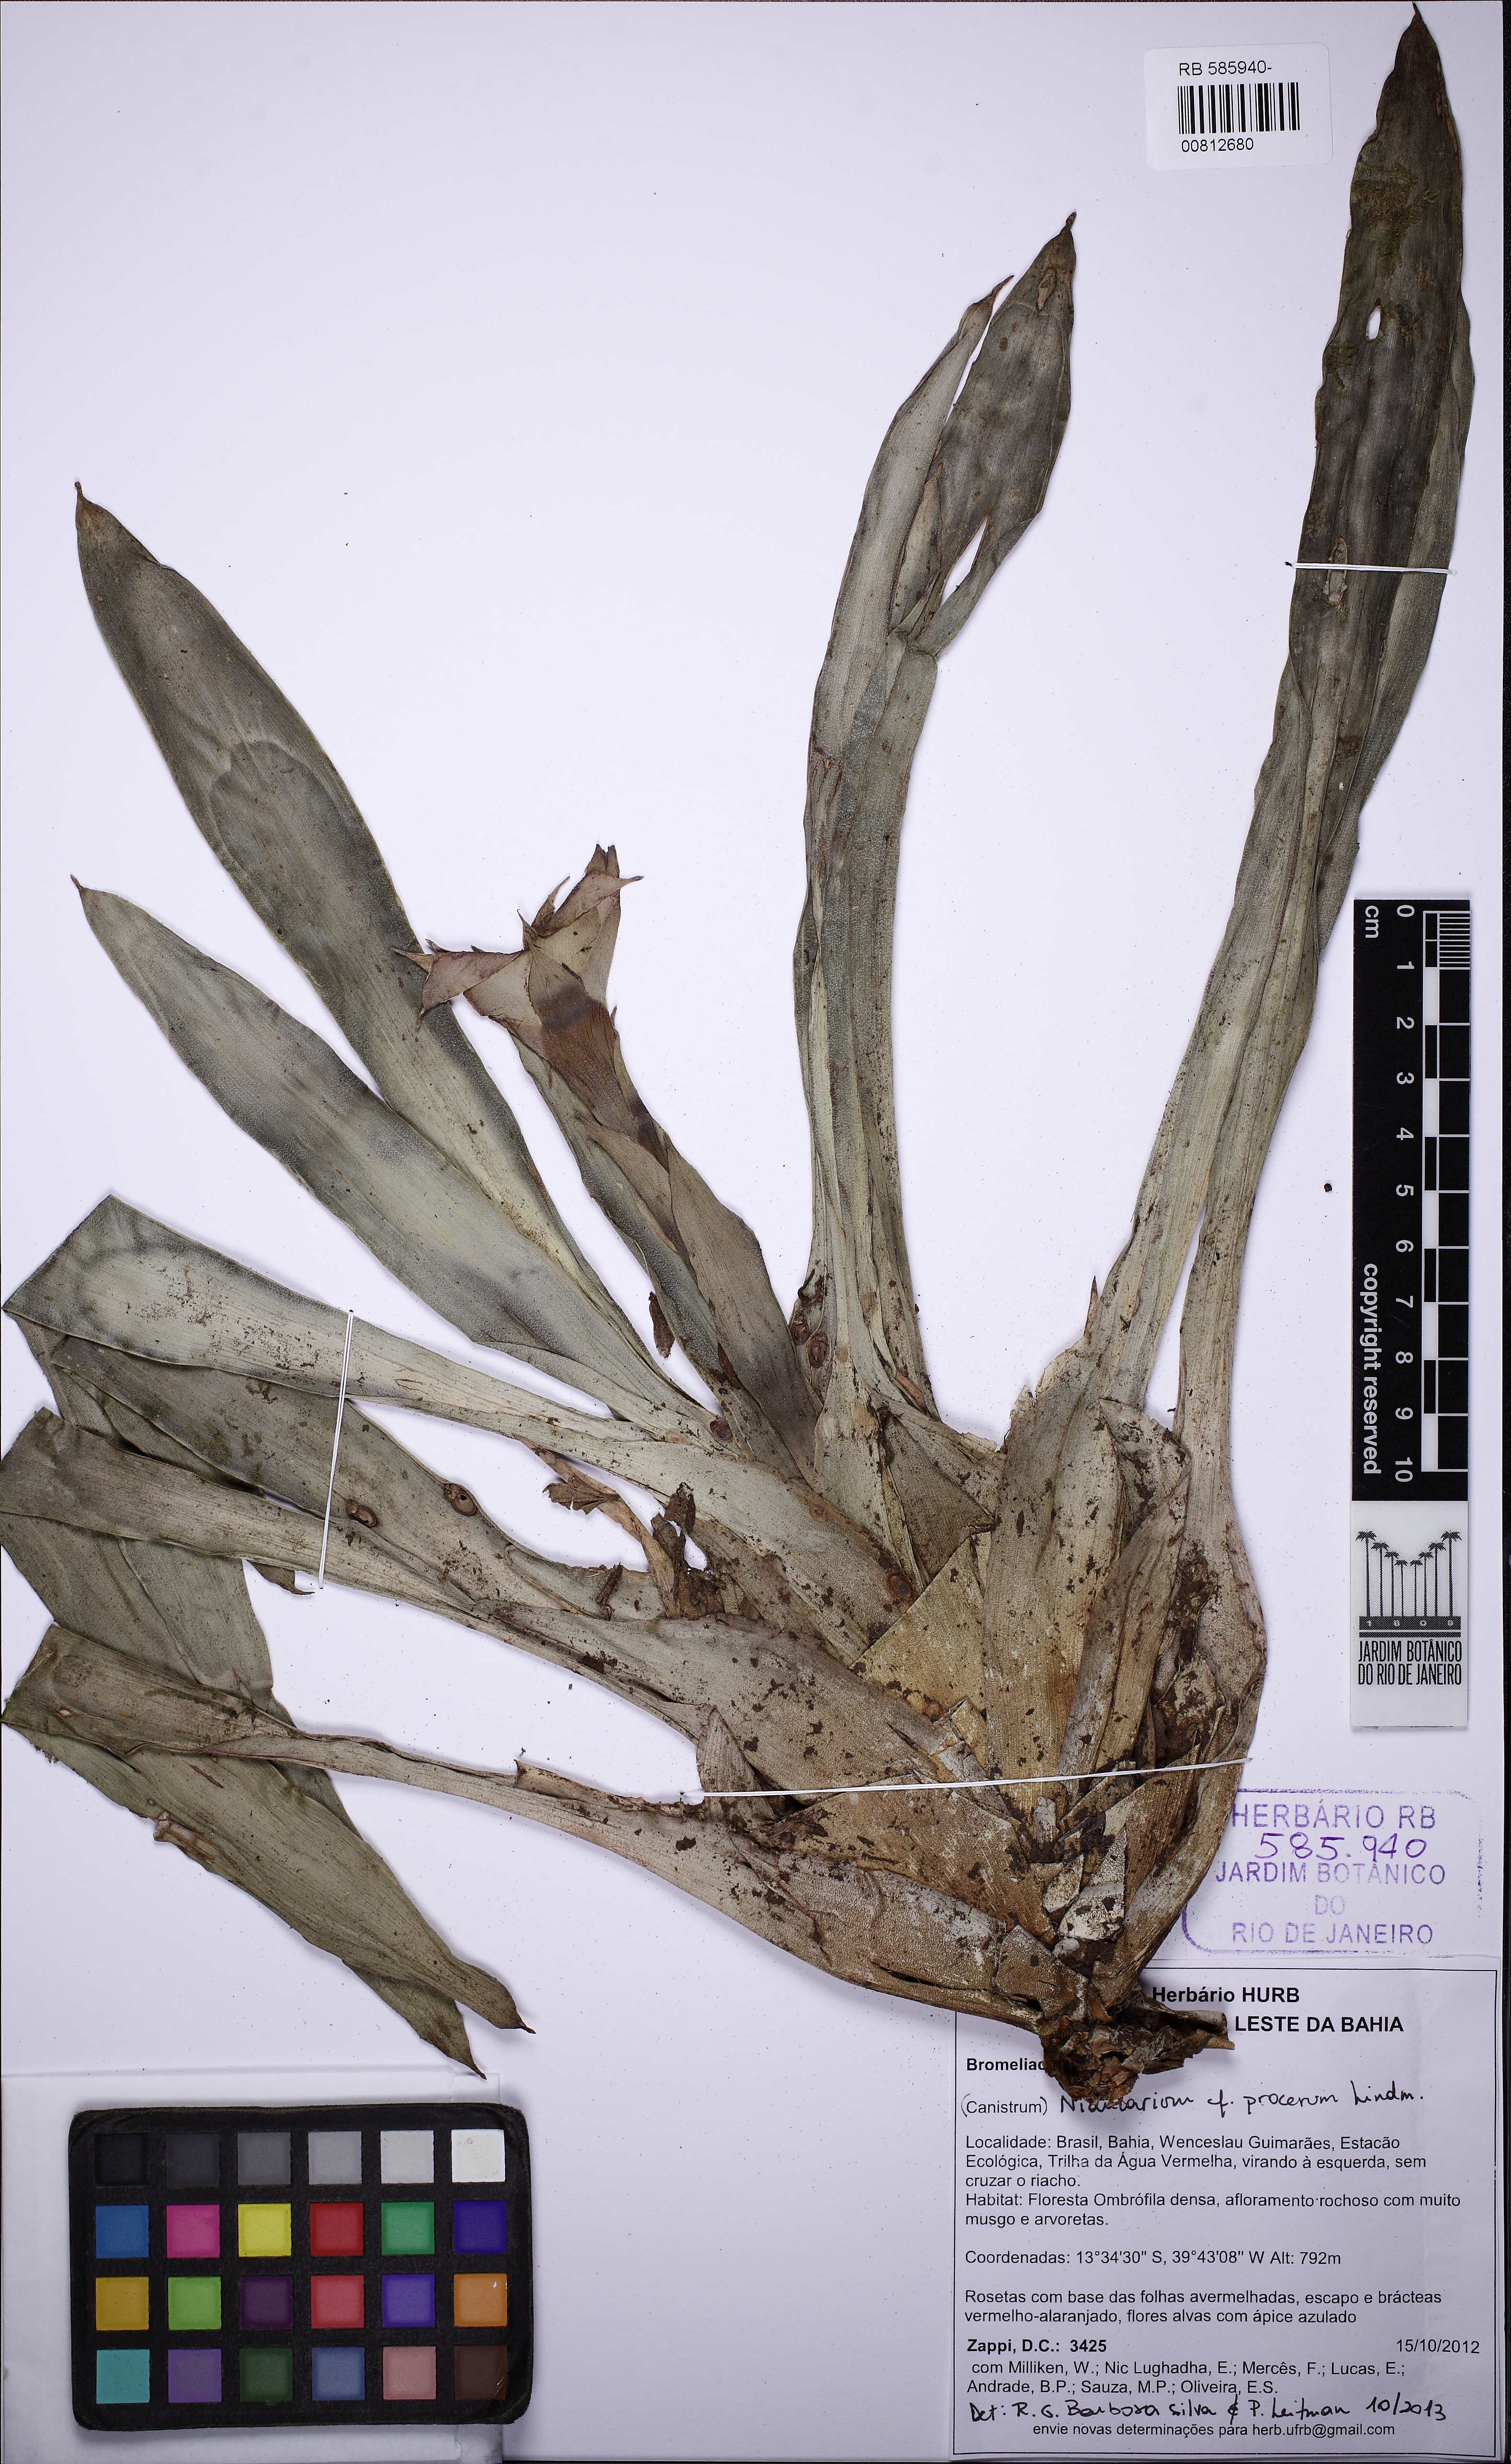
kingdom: Plantae
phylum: Tracheophyta
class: Liliopsida
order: Poales
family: Bromeliaceae
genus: Nidularium
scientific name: Nidularium procerum
